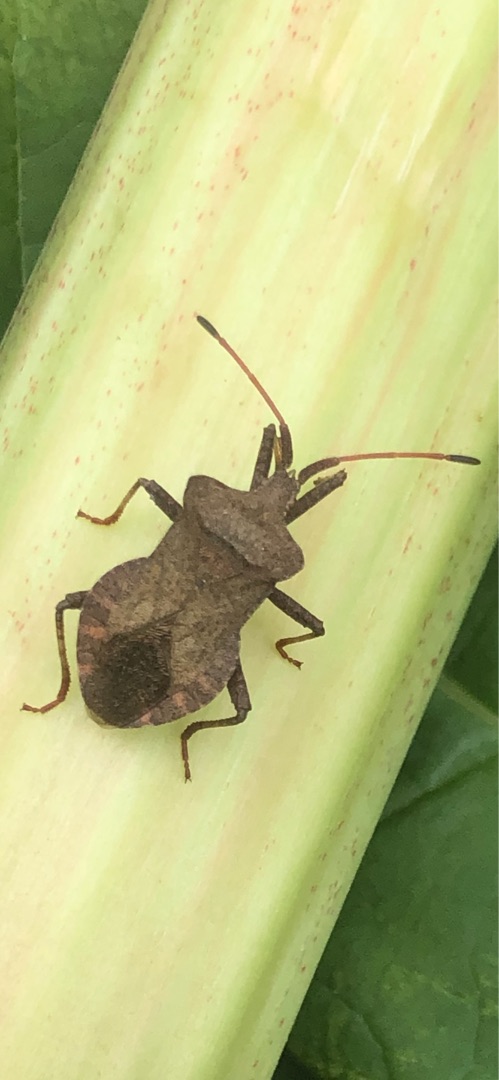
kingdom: Animalia
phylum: Arthropoda
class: Insecta
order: Hemiptera
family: Coreidae
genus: Coreus
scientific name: Coreus marginatus
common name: Skræppetæge
